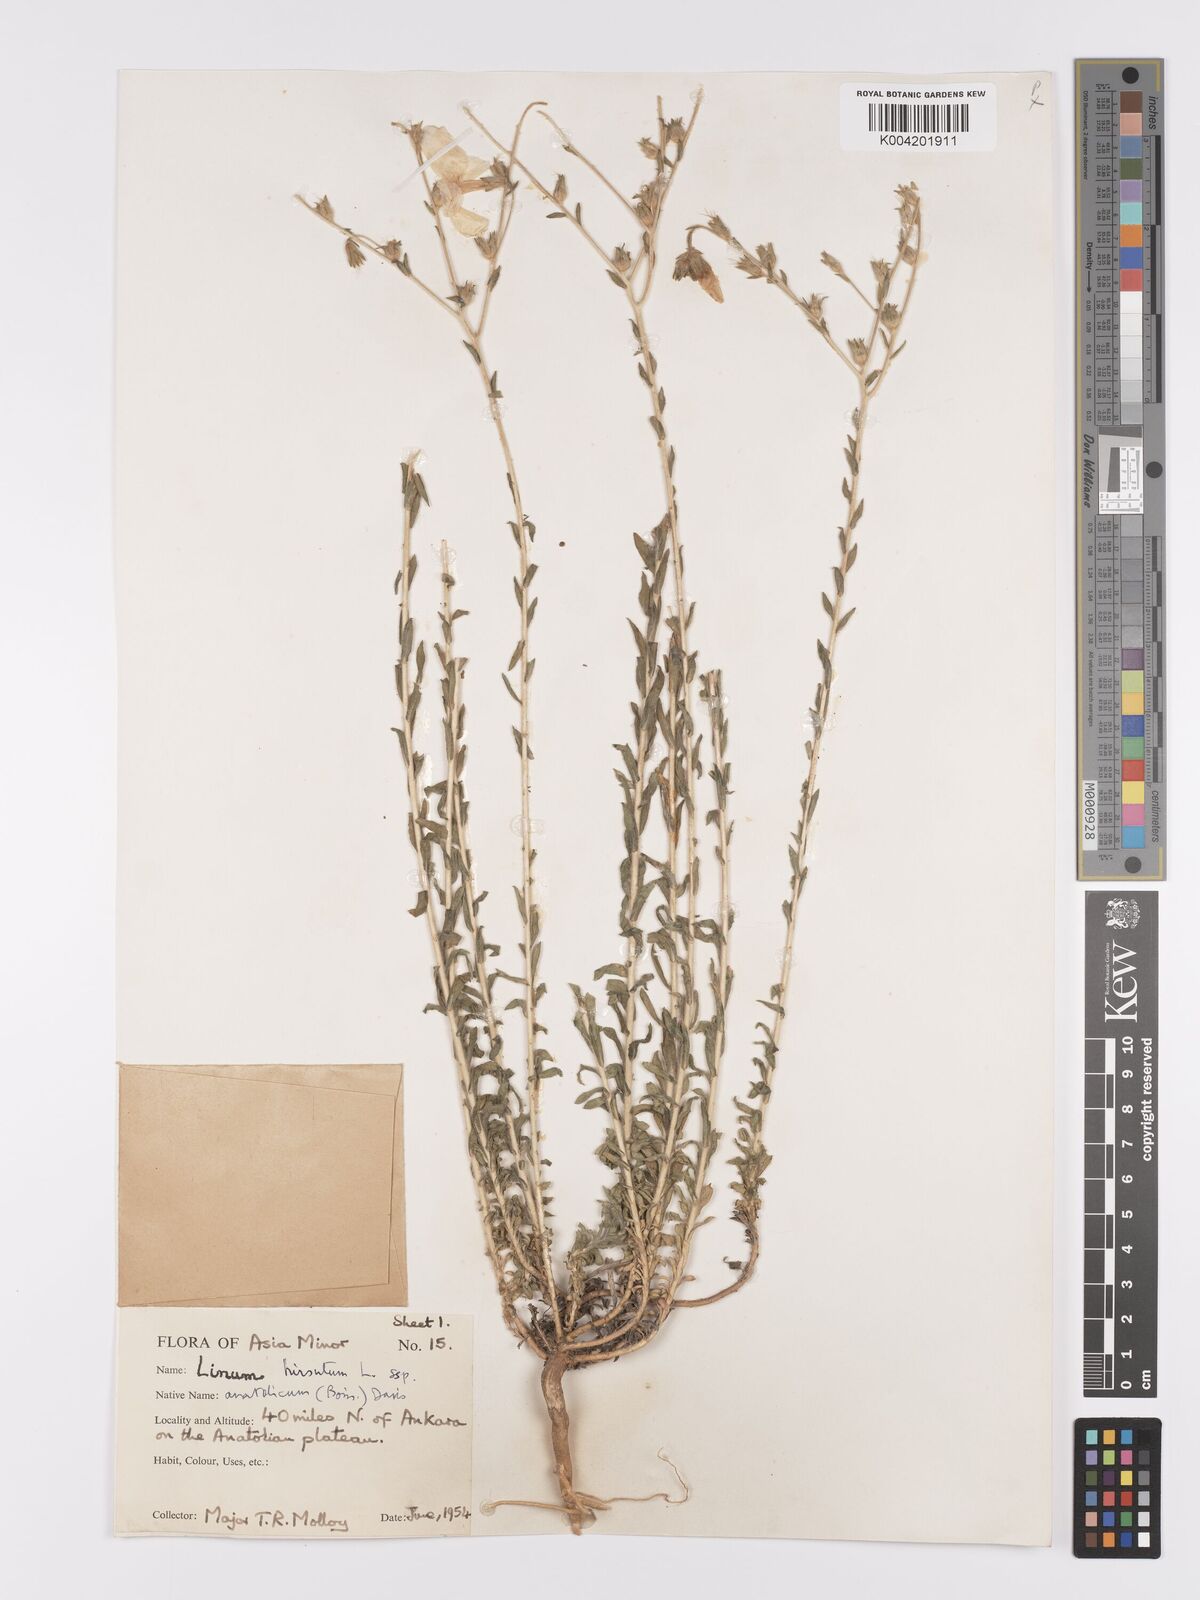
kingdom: Plantae
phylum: Tracheophyta
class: Magnoliopsida
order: Malpighiales
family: Linaceae
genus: Linum
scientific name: Linum
